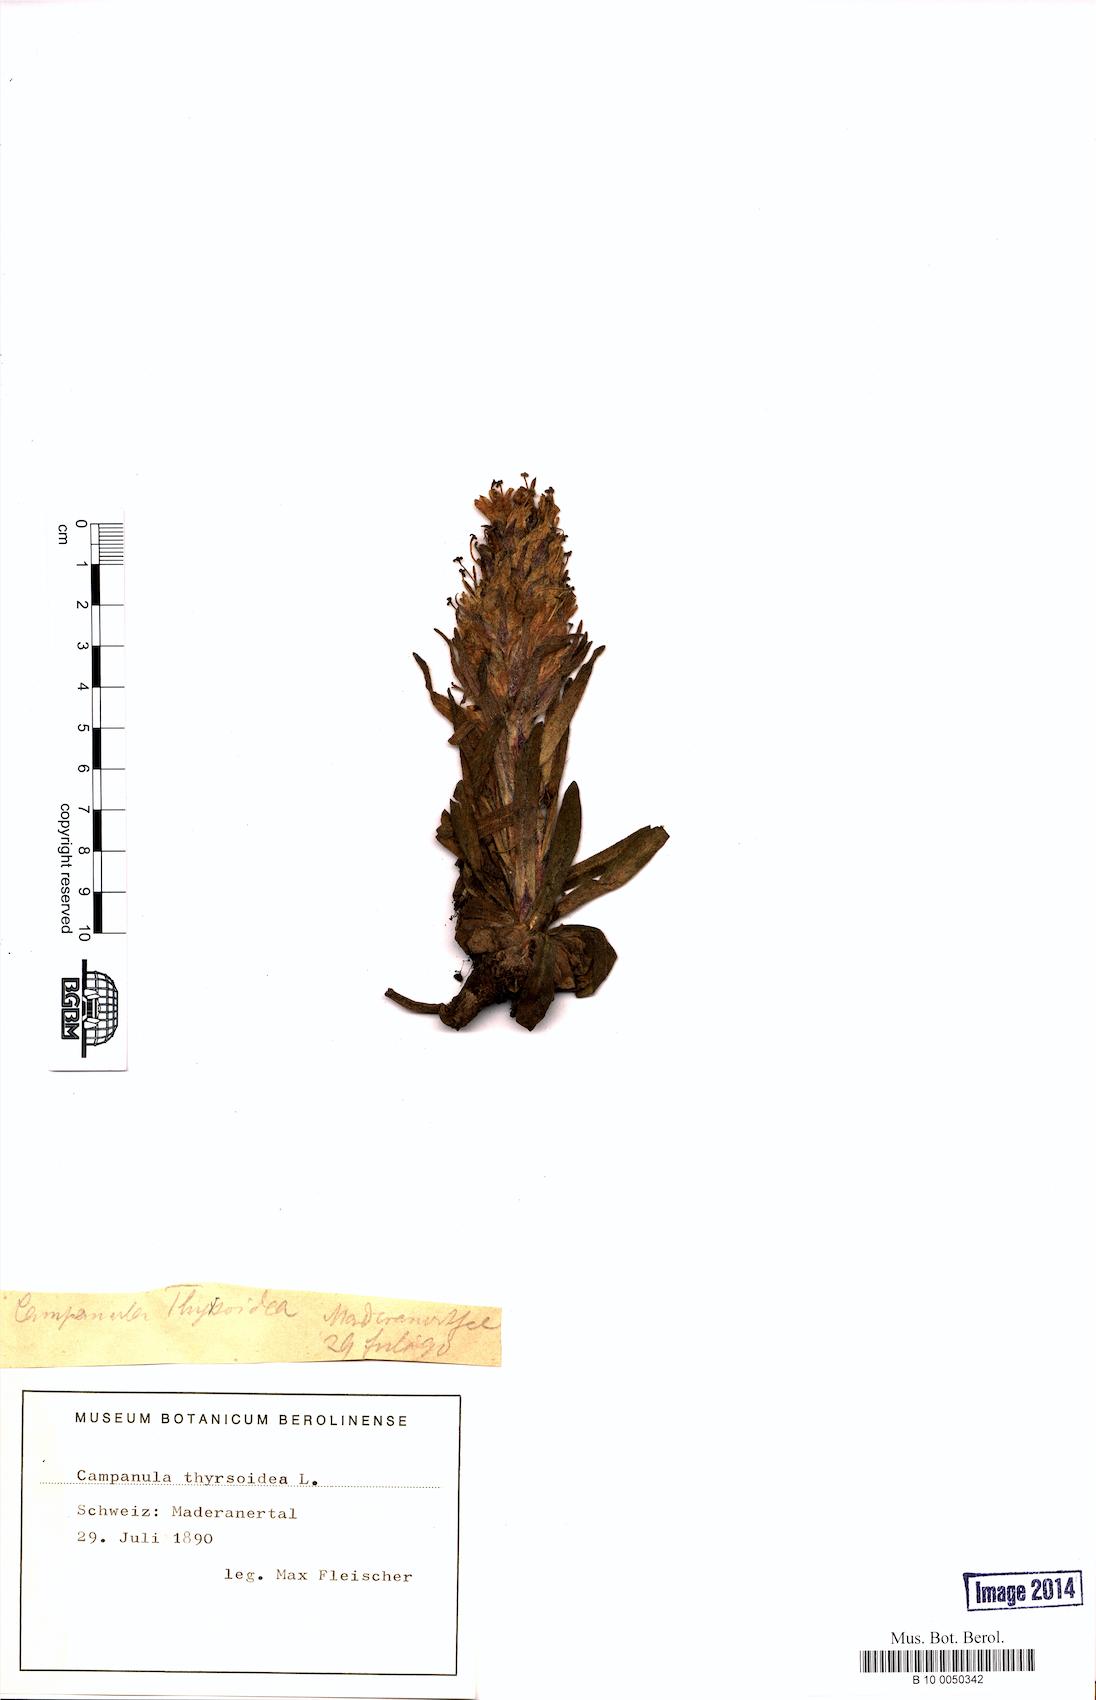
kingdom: Plantae
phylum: Tracheophyta
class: Magnoliopsida
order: Asterales
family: Campanulaceae
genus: Campanula
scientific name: Campanula thyrsoides
